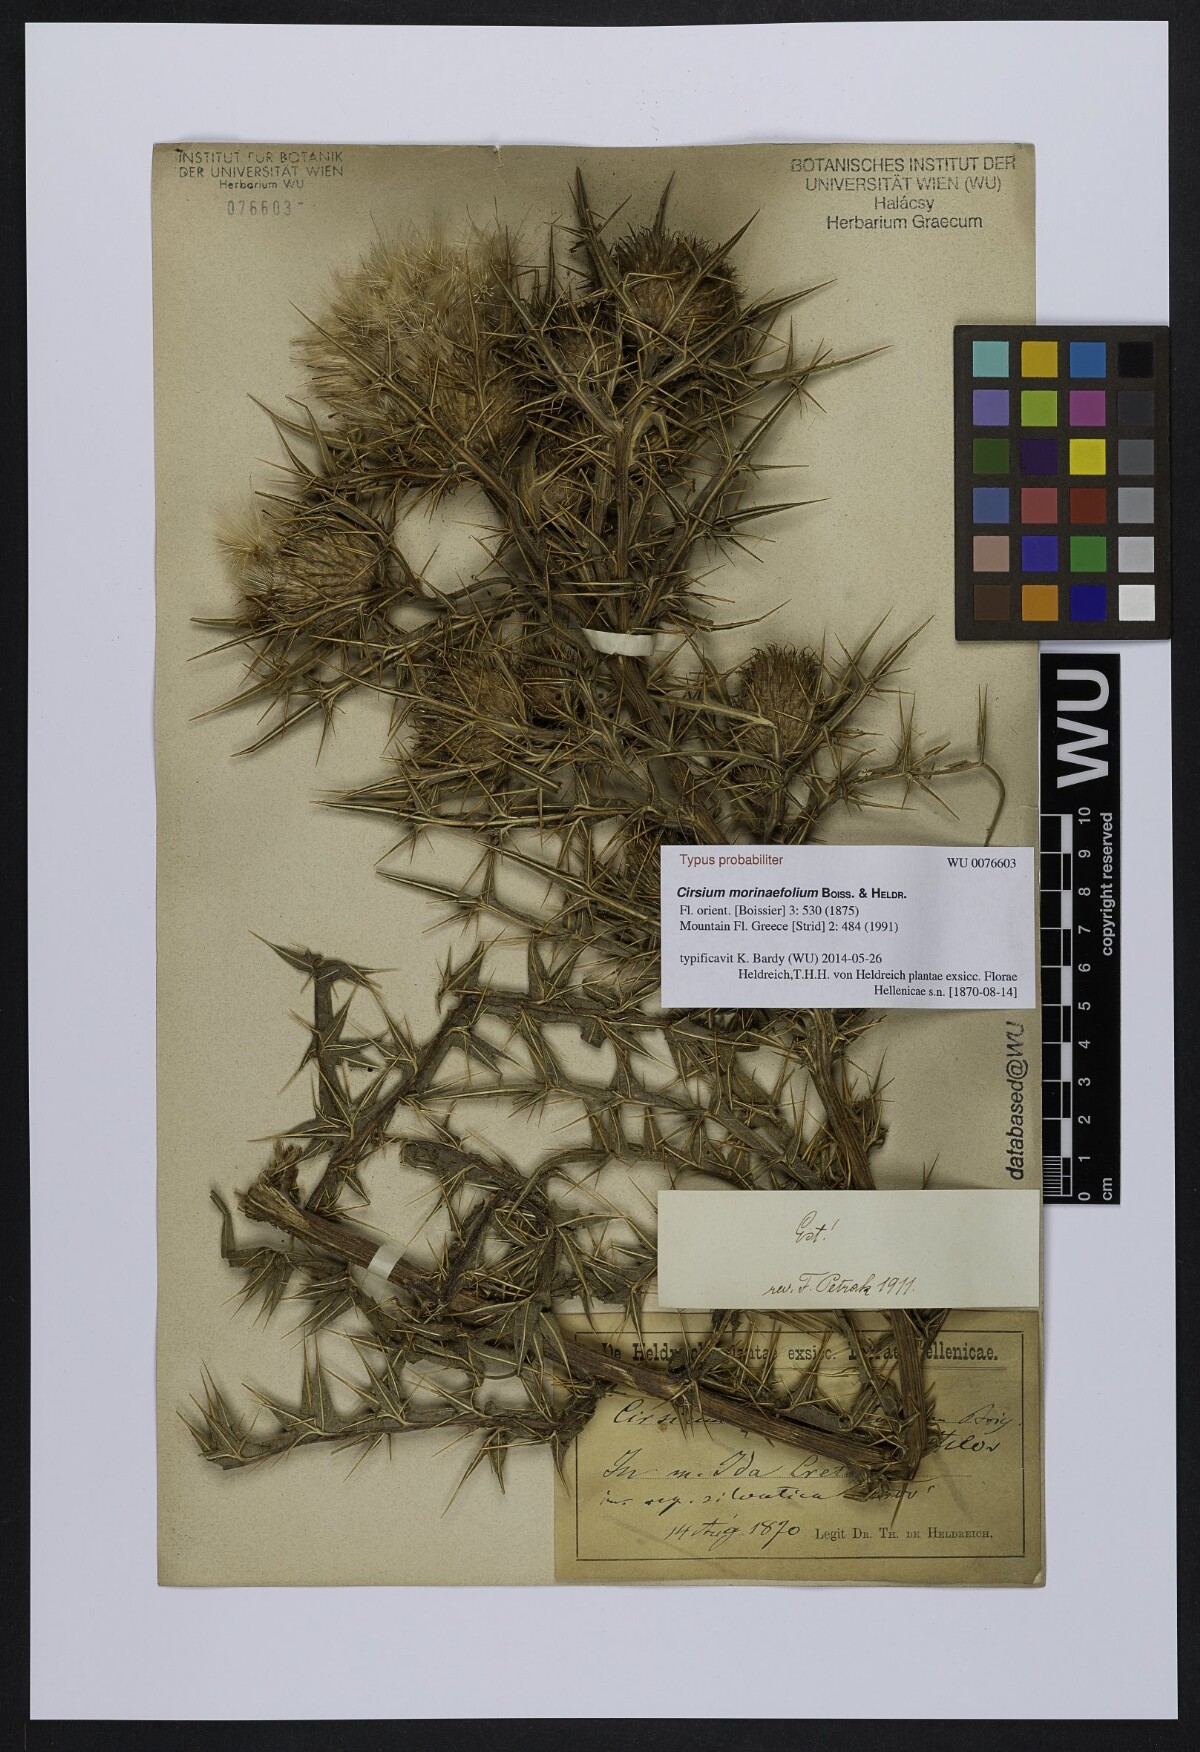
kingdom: Plantae
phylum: Tracheophyta
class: Magnoliopsida
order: Asterales
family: Asteraceae
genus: Lophiolepis
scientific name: Lophiolepis morinifolia
